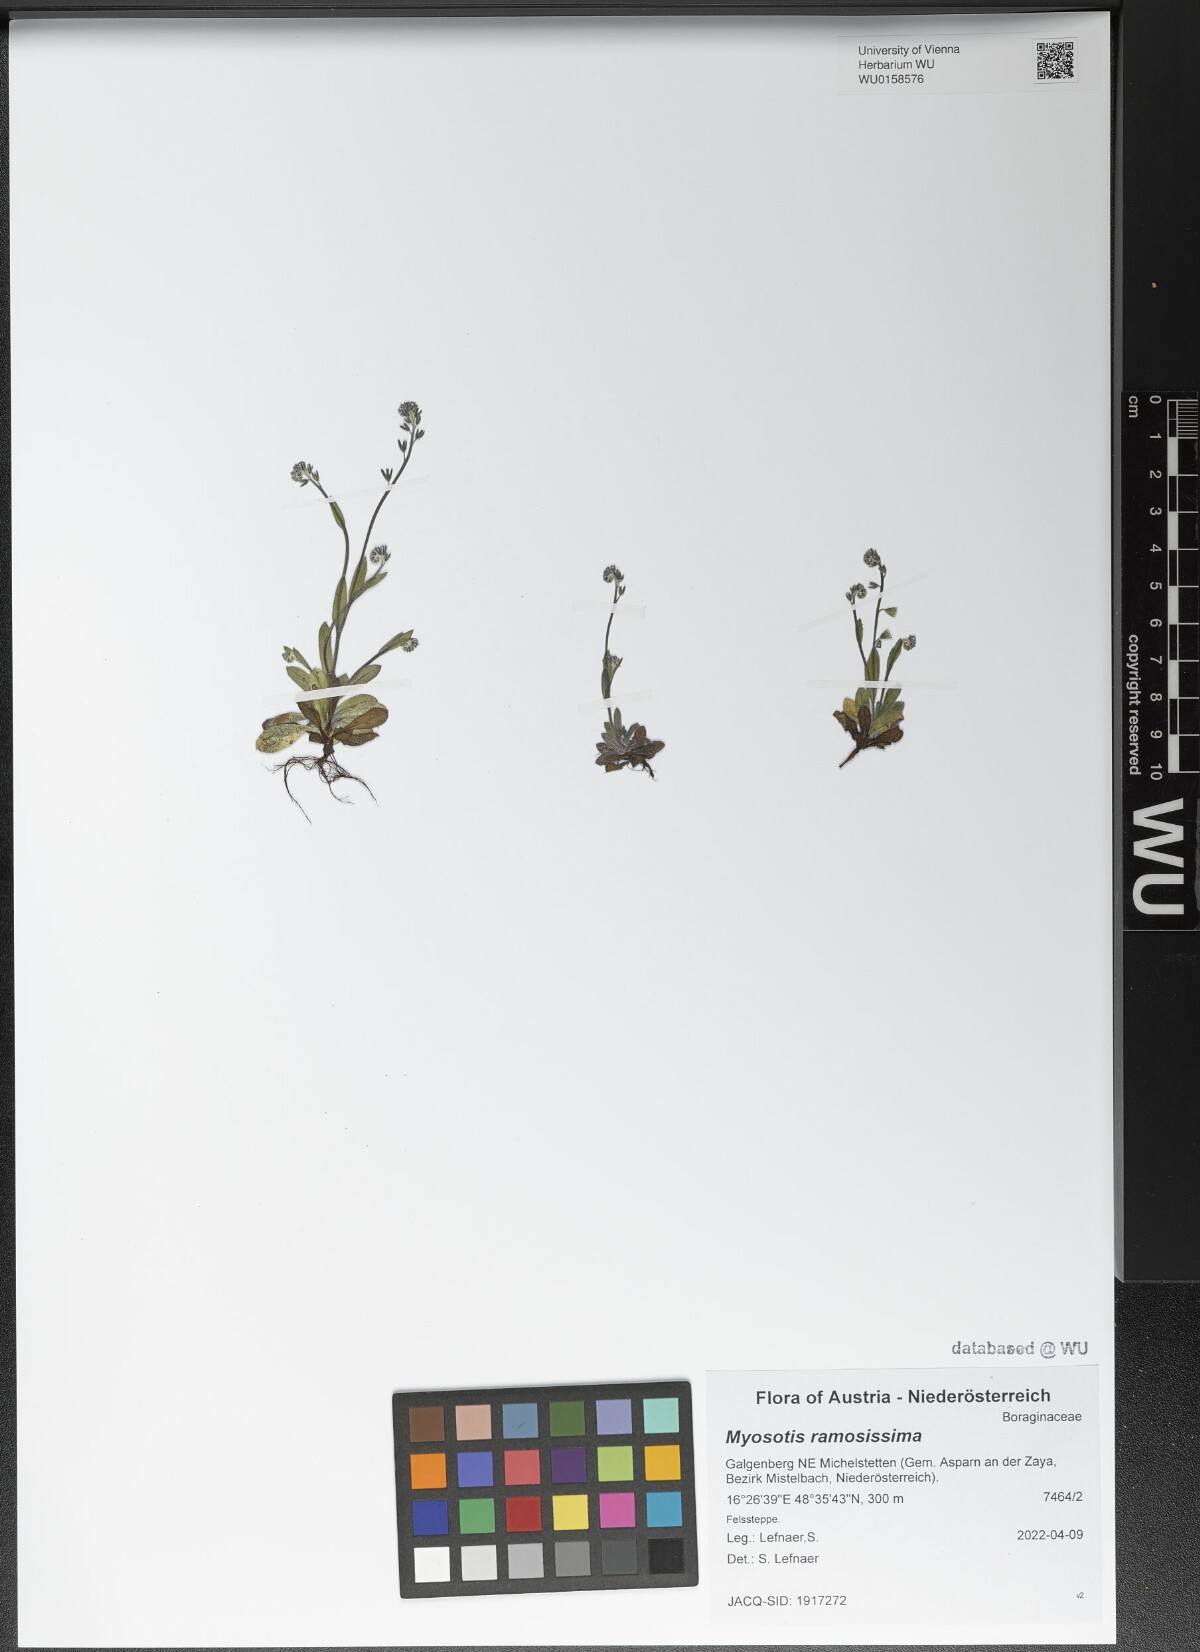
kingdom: Plantae
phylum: Tracheophyta
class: Magnoliopsida
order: Boraginales
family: Boraginaceae
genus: Myosotis
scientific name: Myosotis ramosissima
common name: Early forget-me-not
